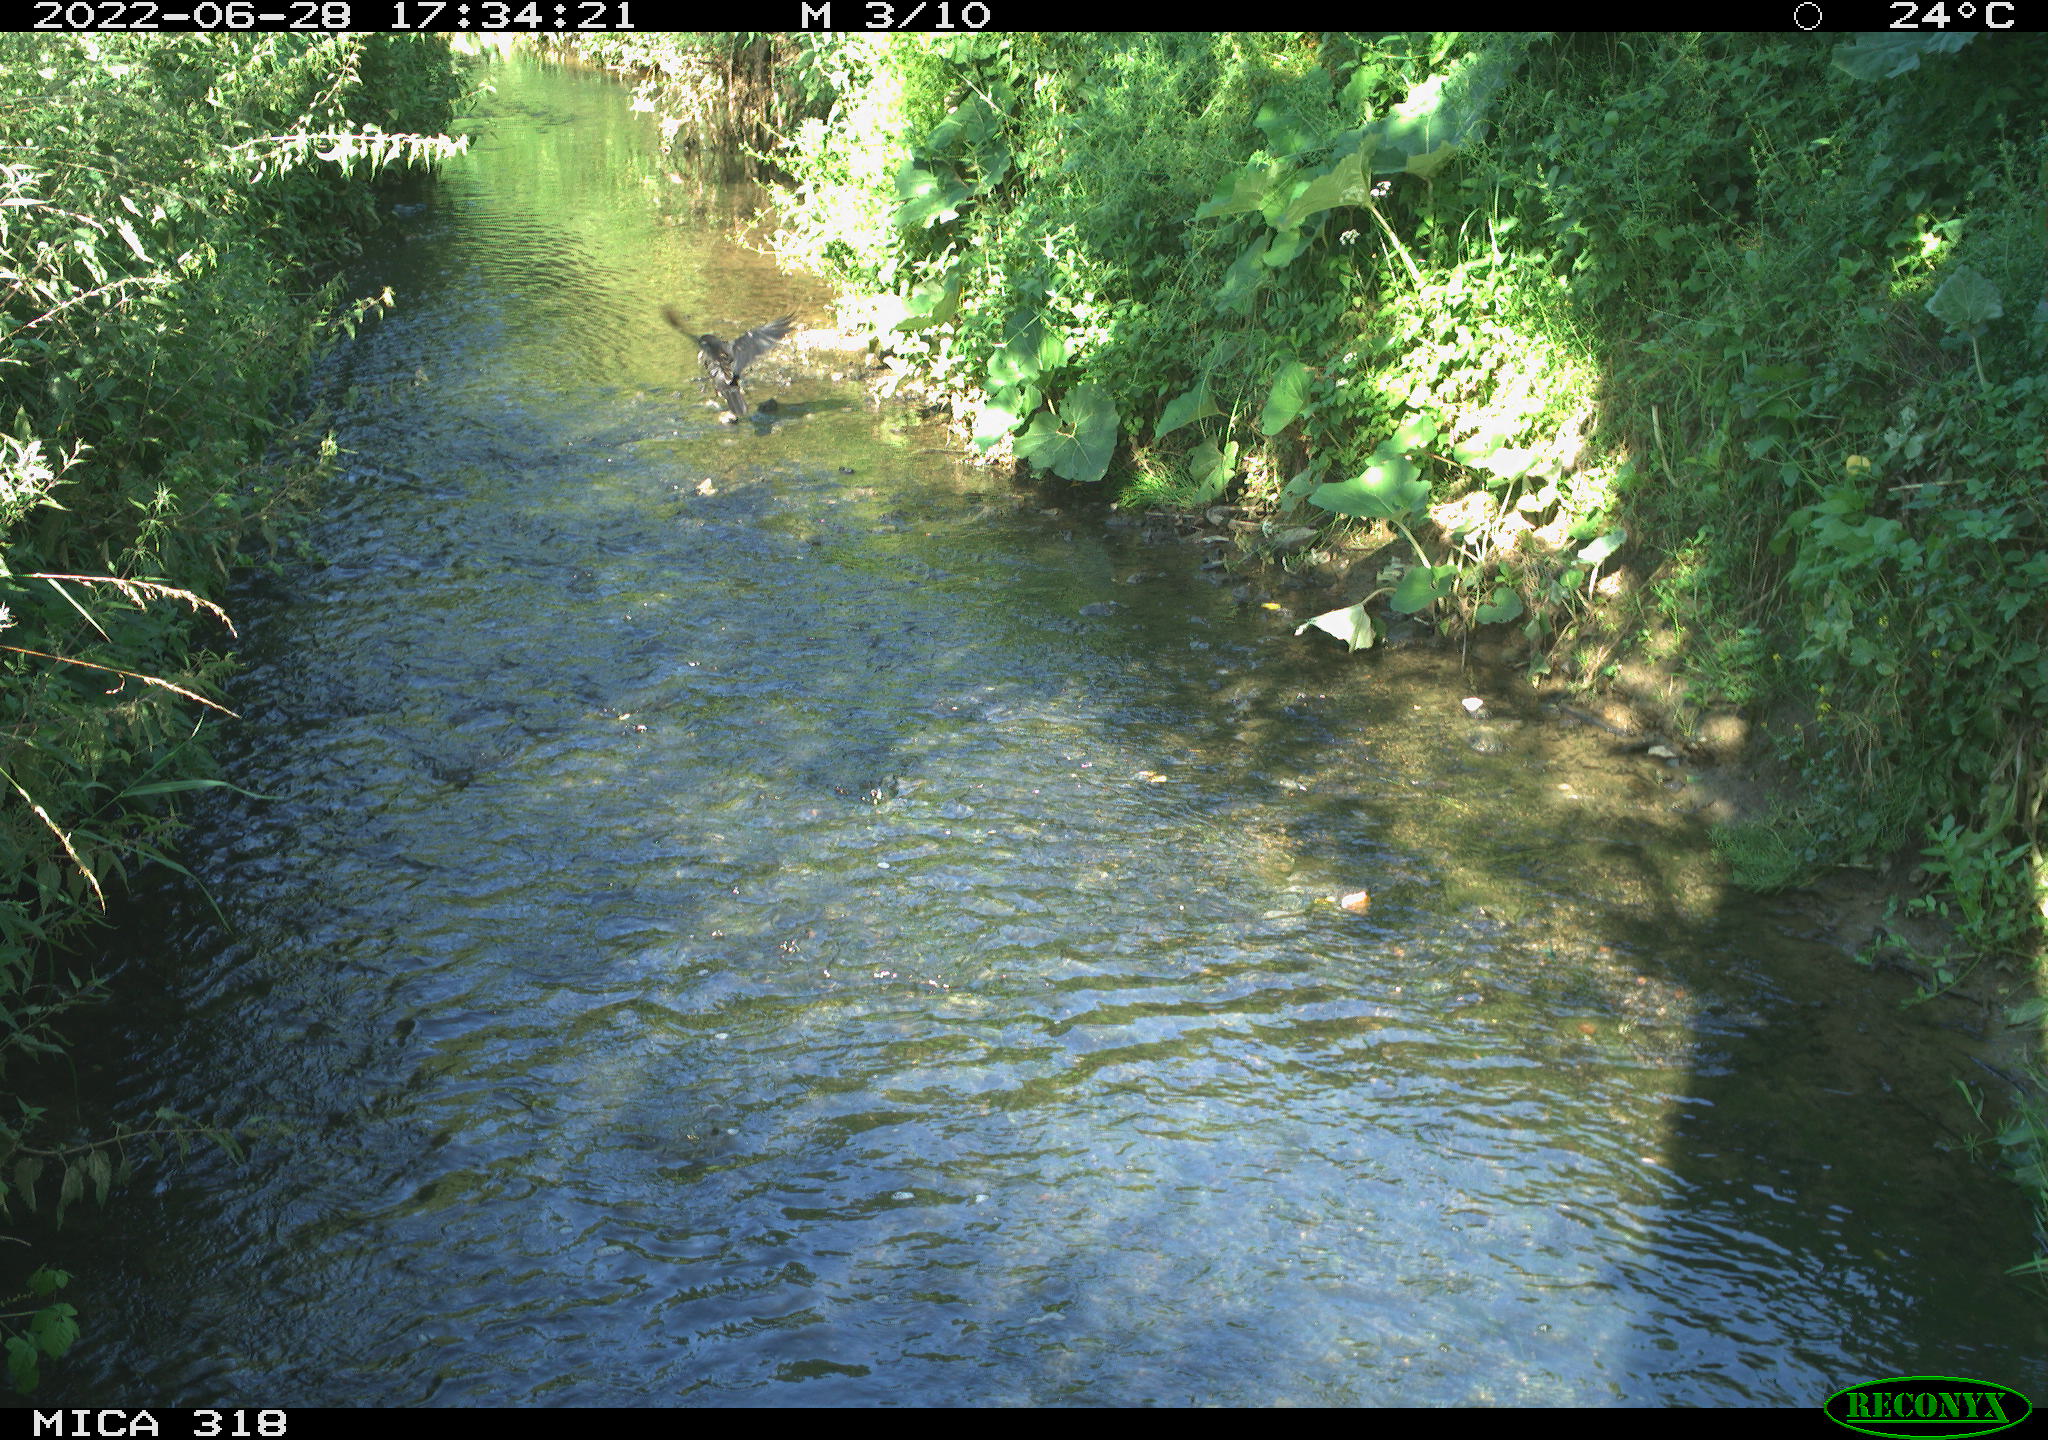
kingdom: Animalia
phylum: Chordata
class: Aves
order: Passeriformes
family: Corvidae
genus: Corvus
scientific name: Corvus corone
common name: Carrion crow
